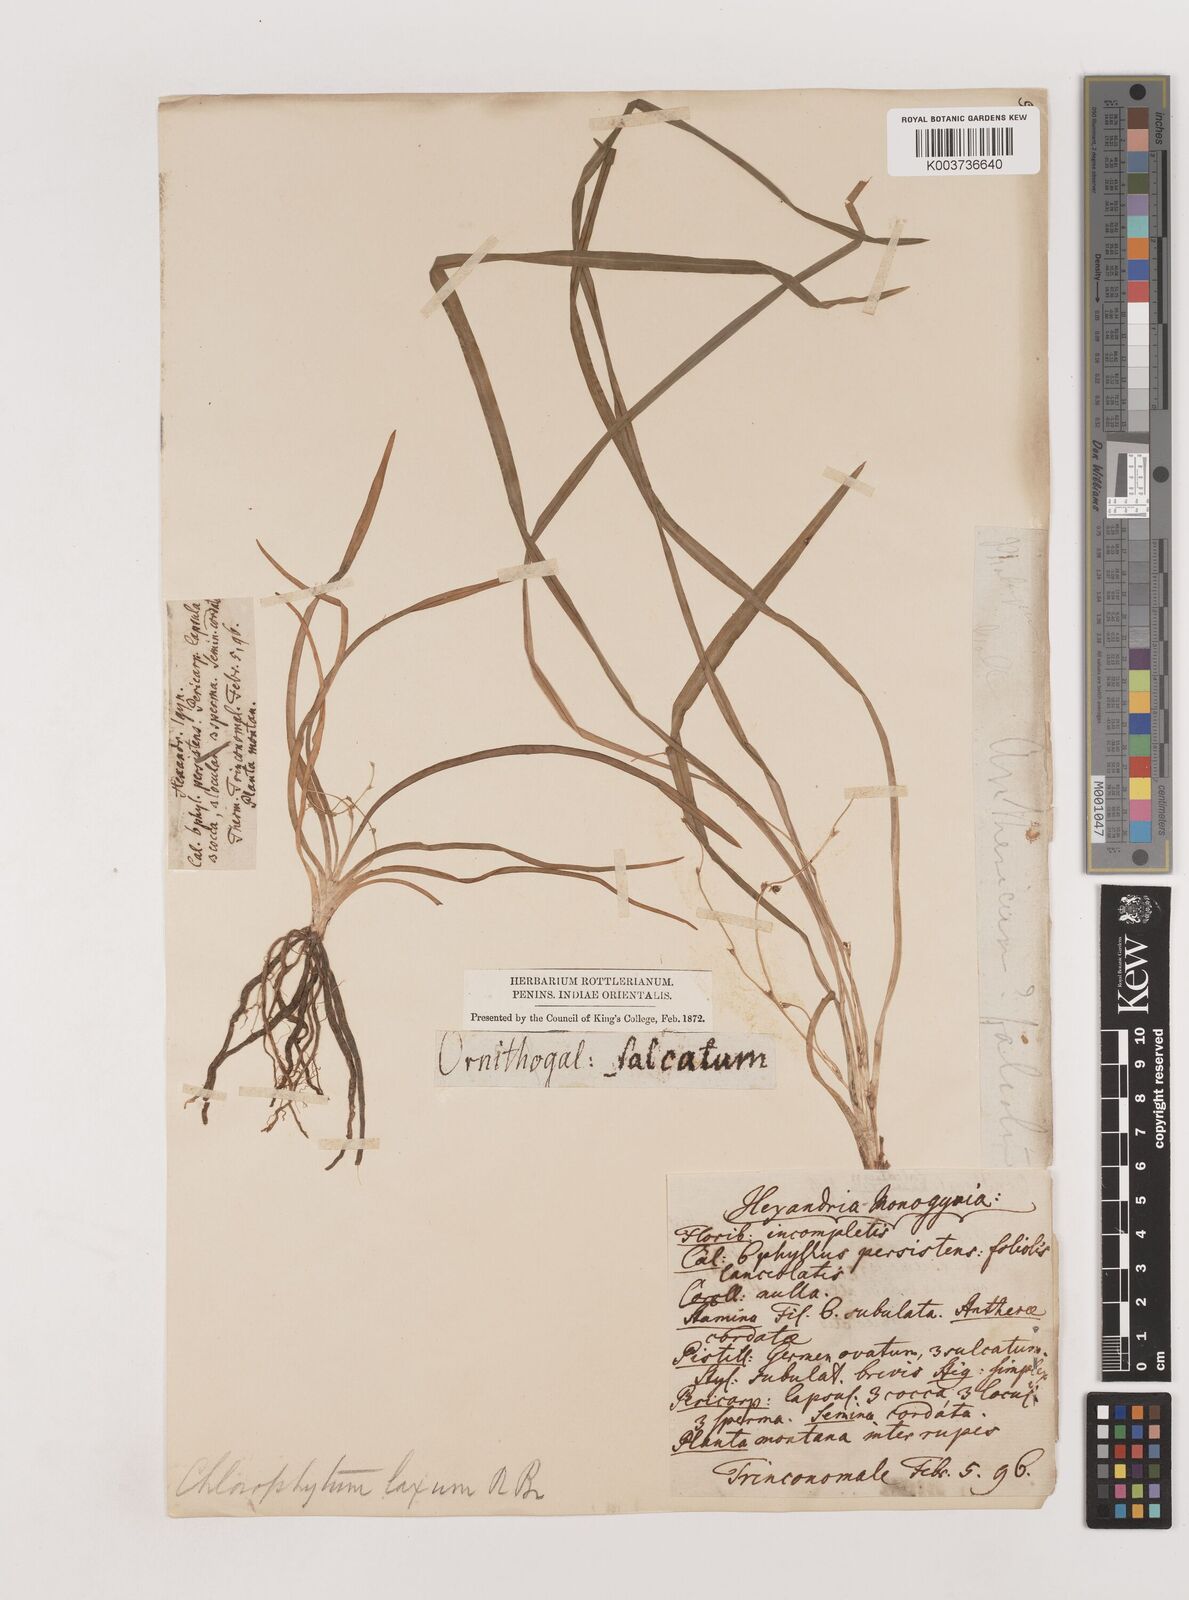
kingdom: Plantae
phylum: Tracheophyta
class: Liliopsida
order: Asparagales
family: Asparagaceae
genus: Chlorophytum
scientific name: Chlorophytum laxum
